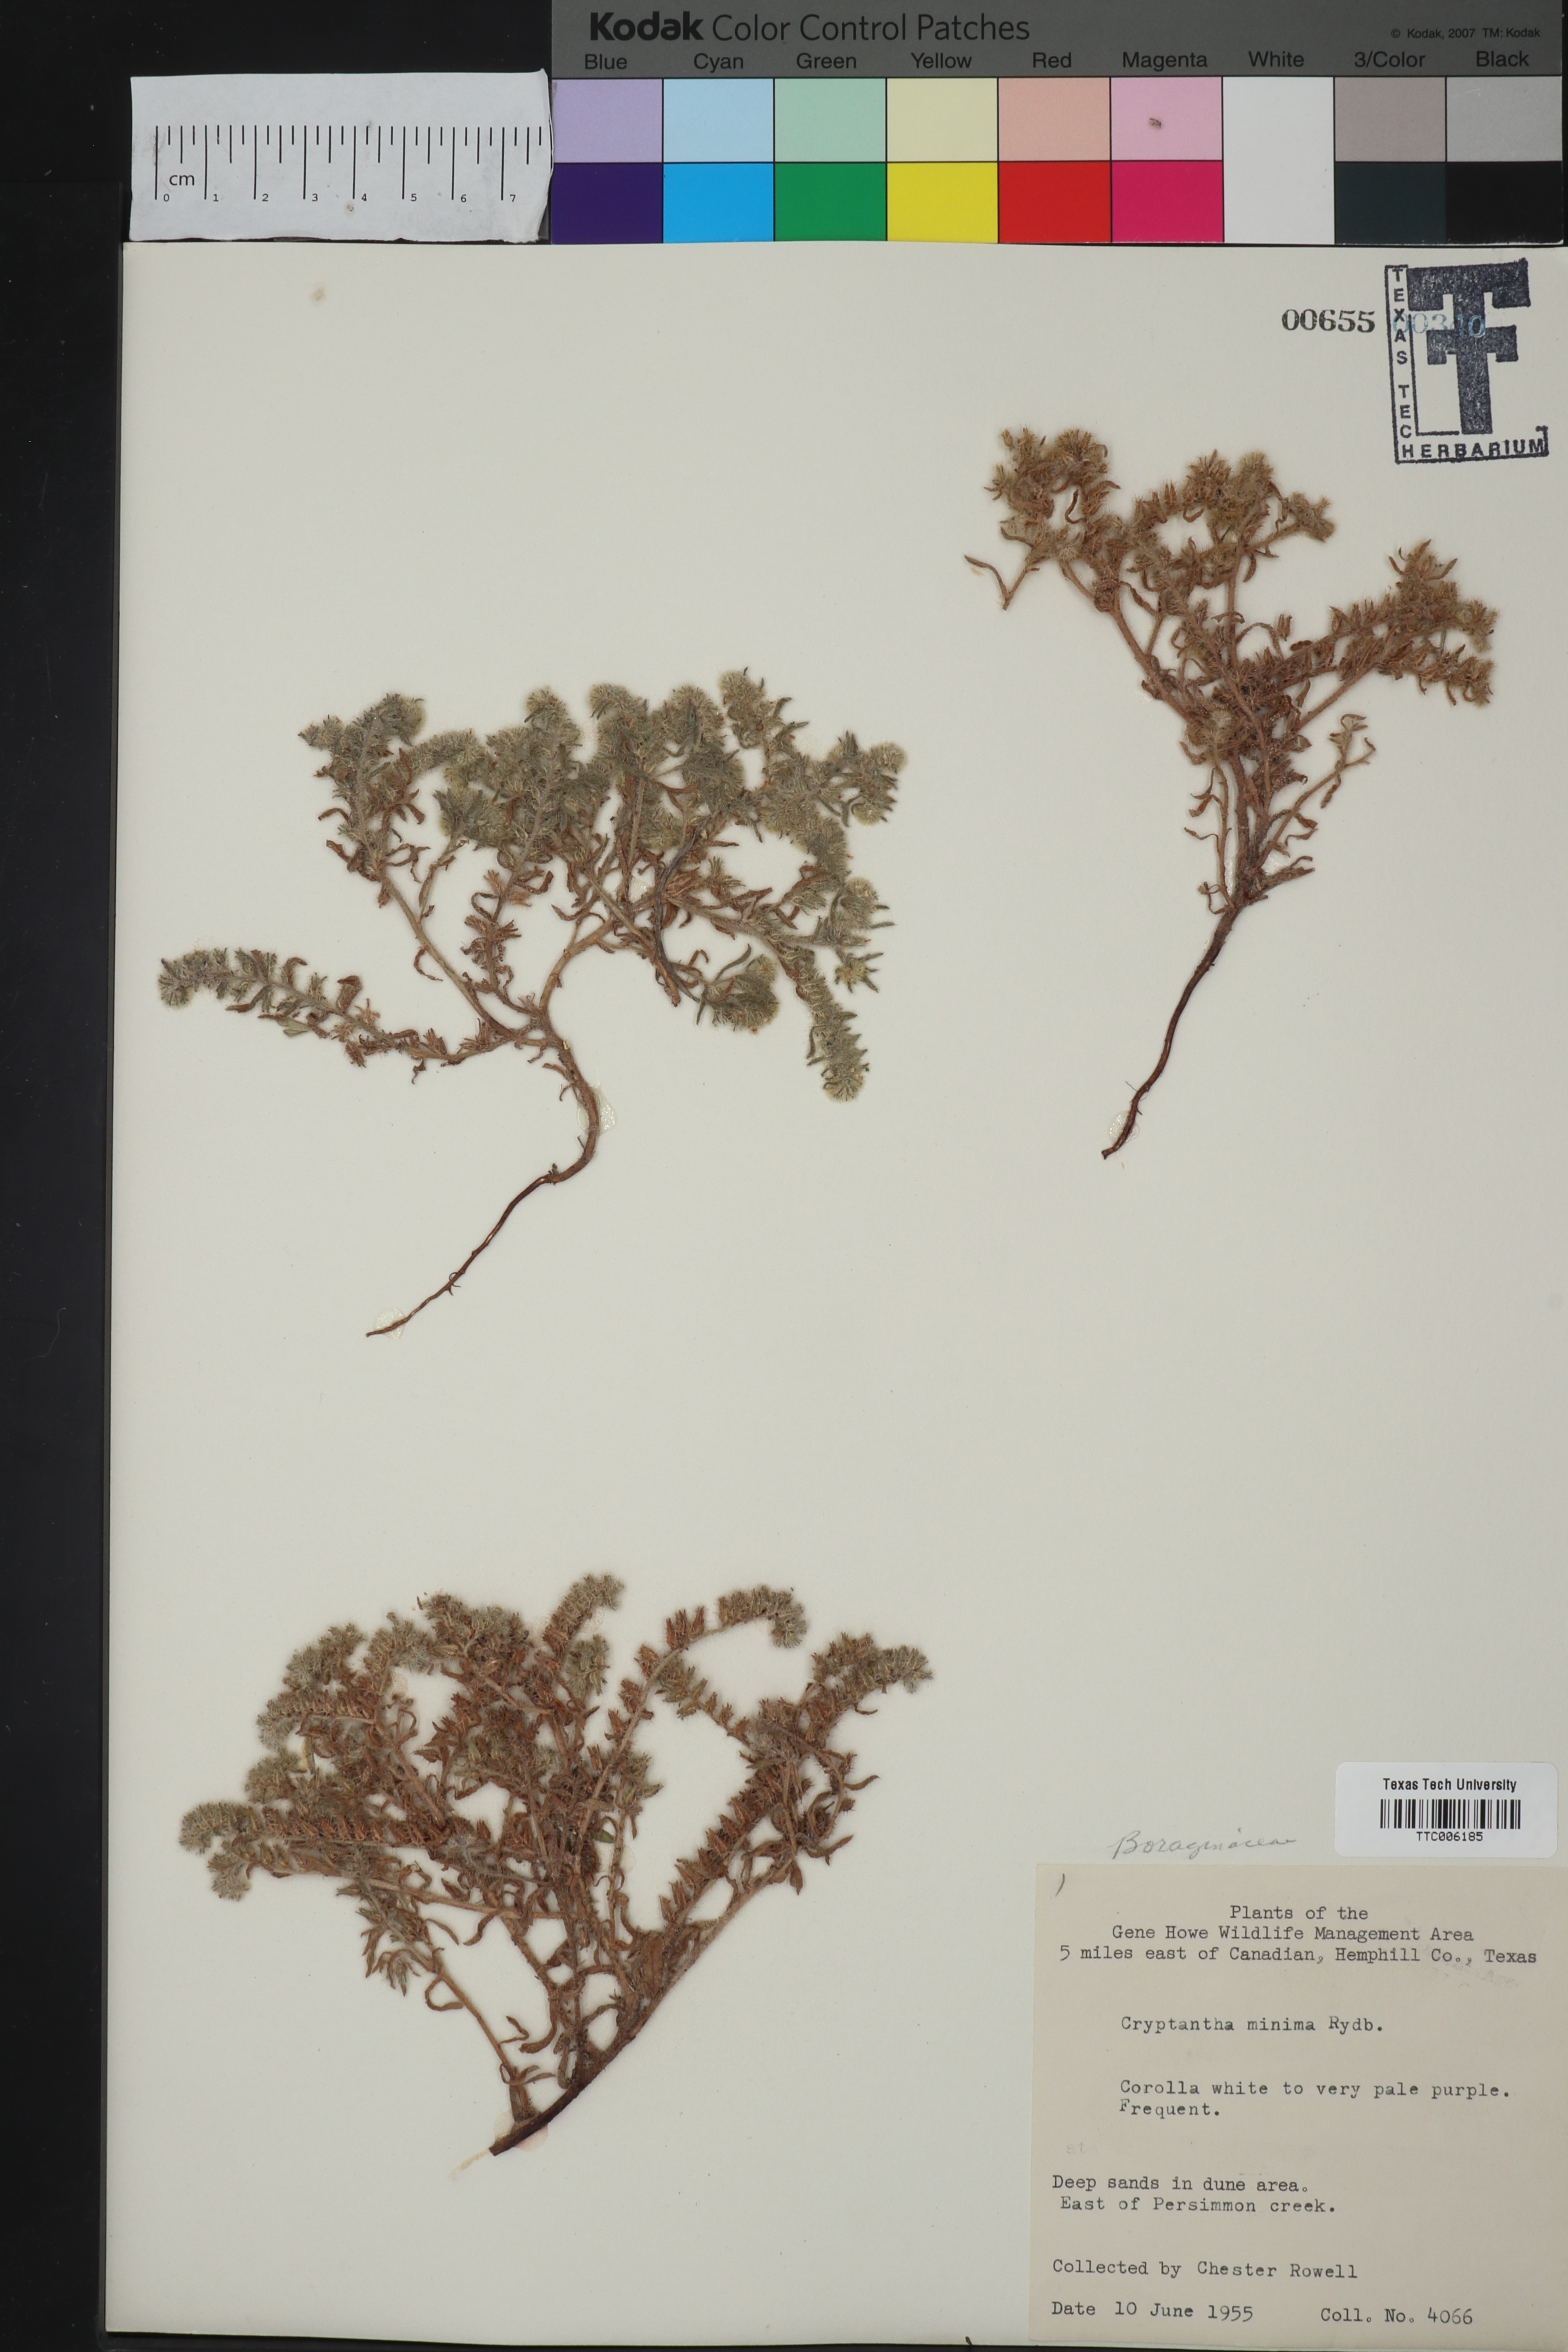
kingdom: Plantae
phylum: Tracheophyta
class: Magnoliopsida
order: Boraginales
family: Boraginaceae
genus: Cryptantha
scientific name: Cryptantha minima
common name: Little cat's-eye
